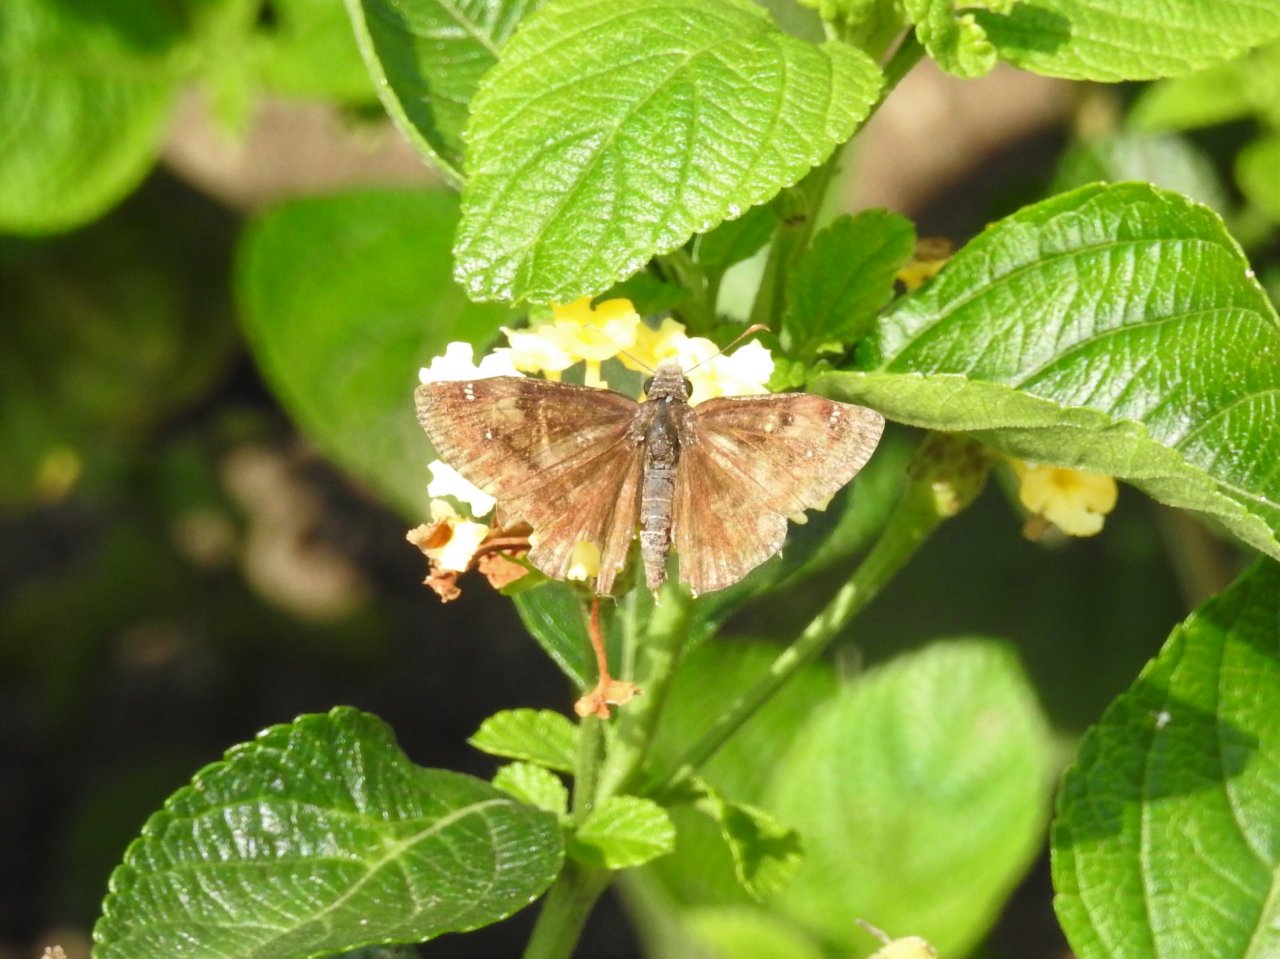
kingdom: Animalia
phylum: Arthropoda
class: Insecta
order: Lepidoptera
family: Hesperiidae
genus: Gesta
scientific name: Gesta
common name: Wild Indigo Duskywing
